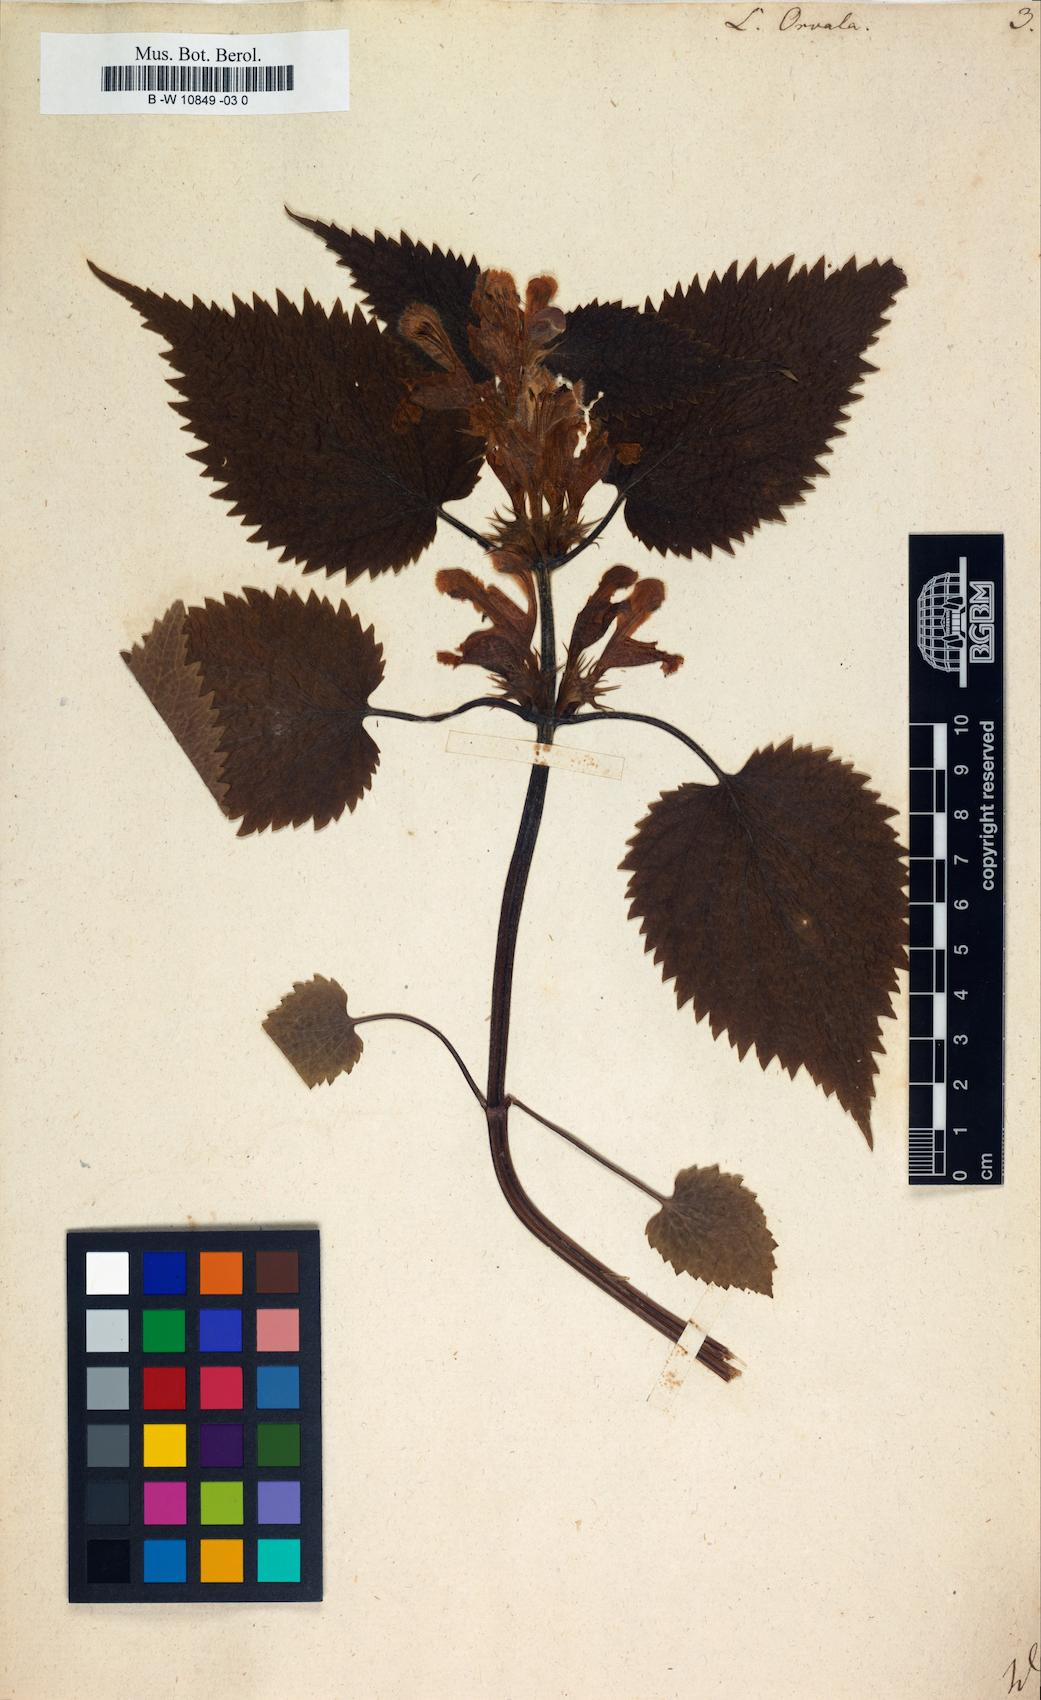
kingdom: Plantae
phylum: Tracheophyta
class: Magnoliopsida
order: Lamiales
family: Lamiaceae
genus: Lamium
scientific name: Lamium orvala
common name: Balm-leaved archangel
